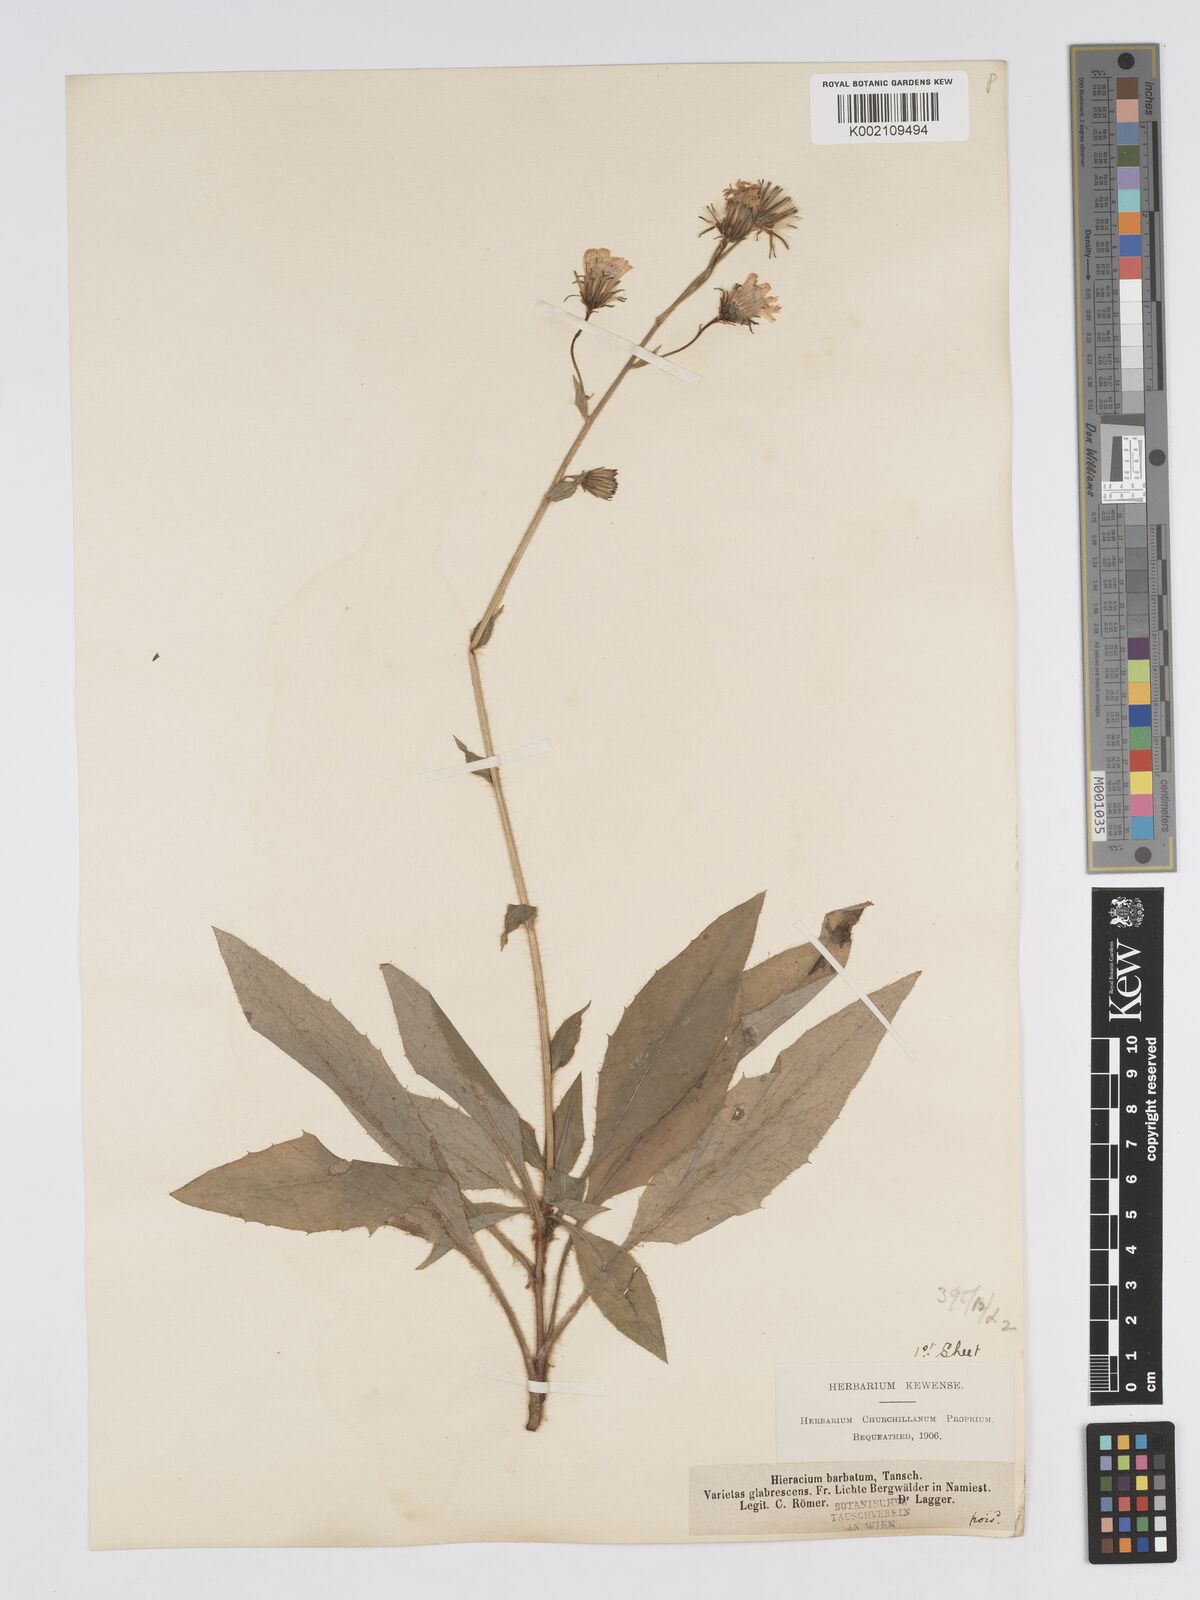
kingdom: Plantae
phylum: Tracheophyta
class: Magnoliopsida
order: Asterales
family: Asteraceae
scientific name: Asteraceae
